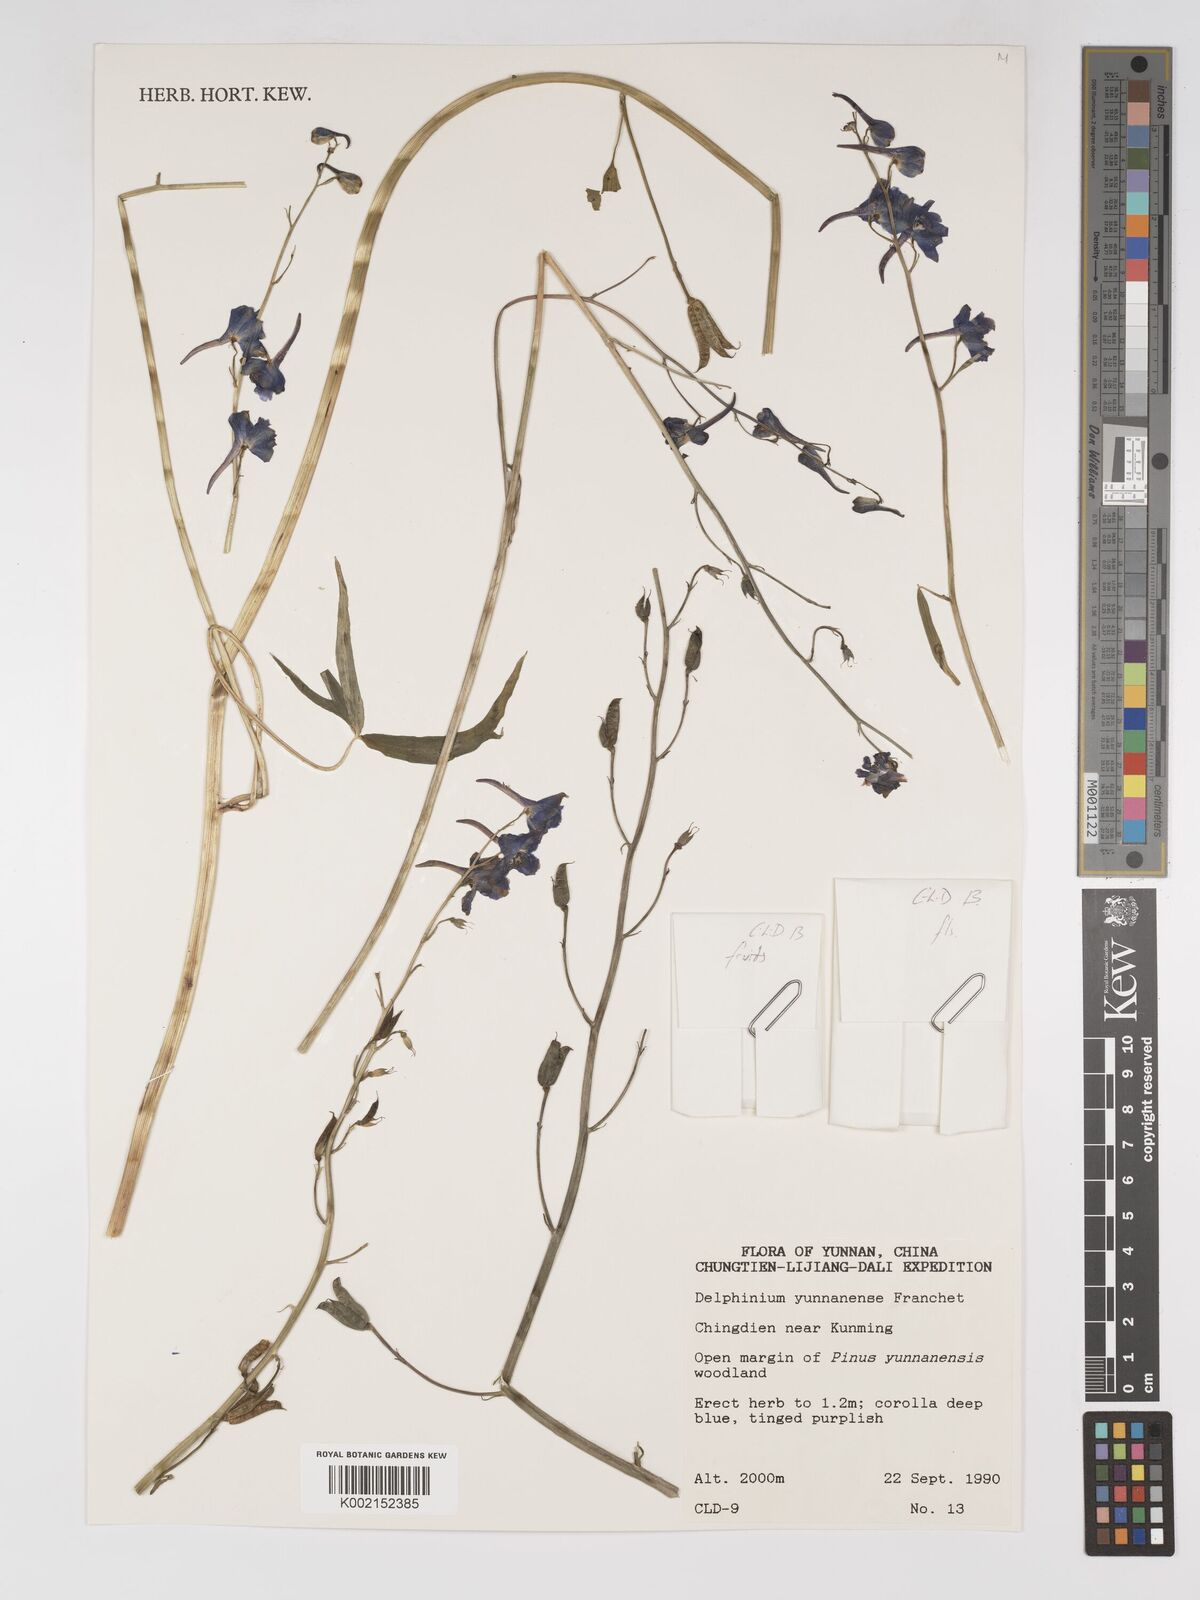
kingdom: Plantae
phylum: Tracheophyta
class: Magnoliopsida
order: Ranunculales
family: Ranunculaceae
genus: Delphinium
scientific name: Delphinium yunnanense
